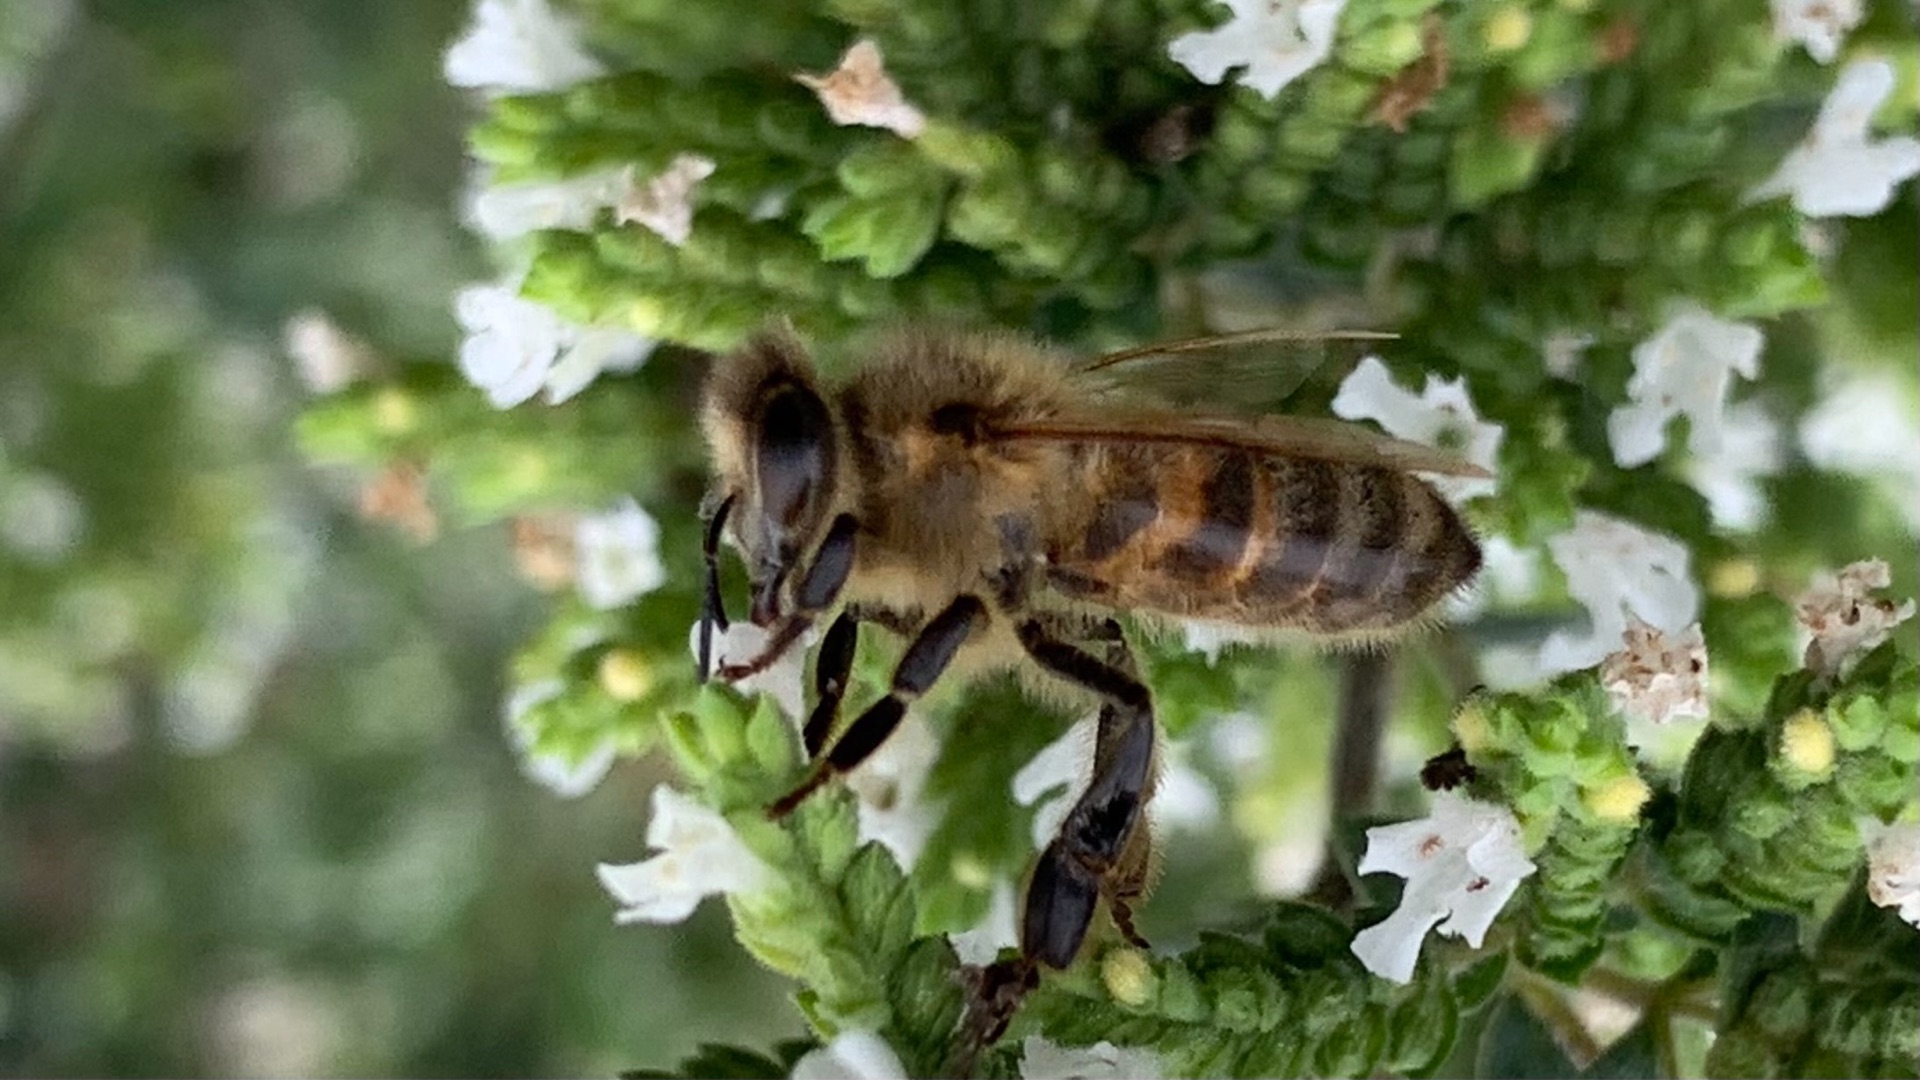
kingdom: Animalia
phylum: Arthropoda
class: Insecta
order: Hymenoptera
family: Apidae
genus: Apis
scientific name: Apis mellifera
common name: Honningbi
